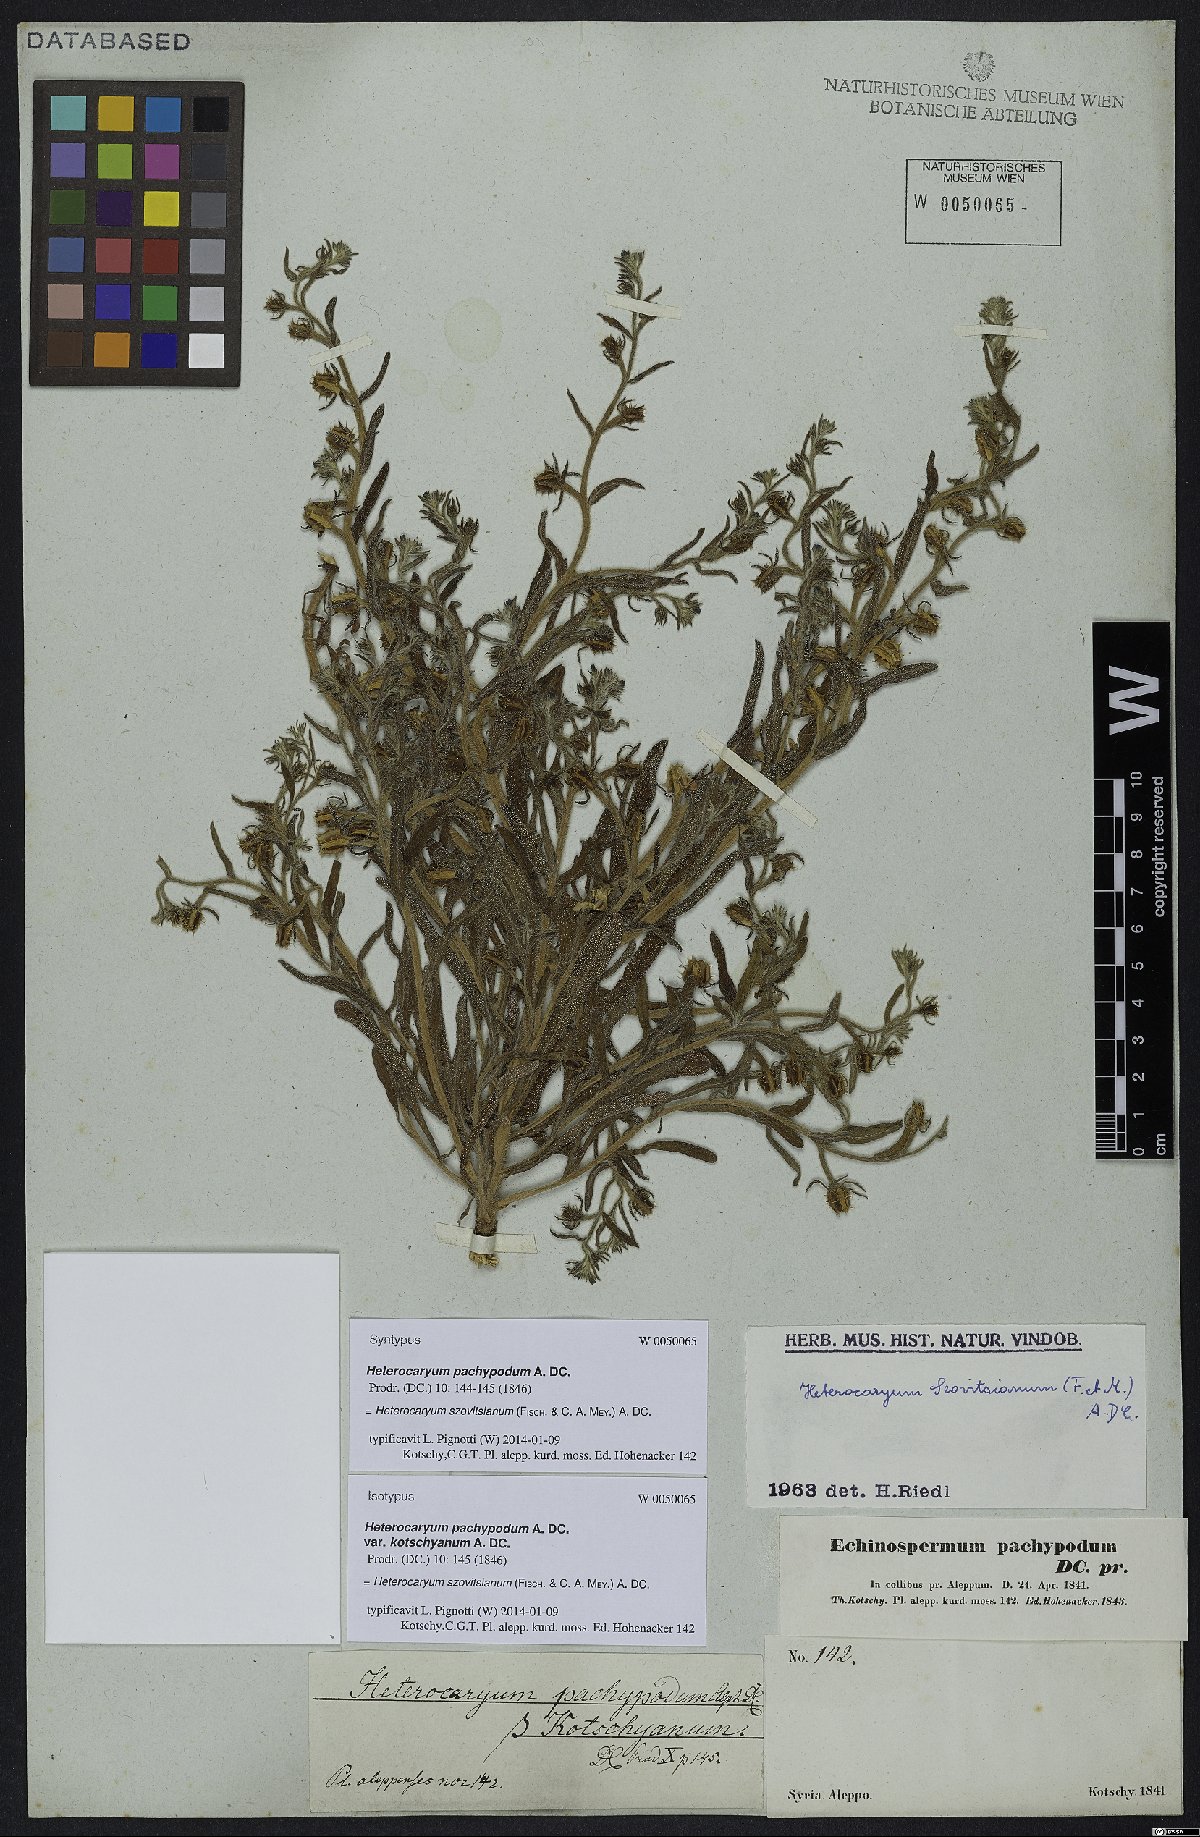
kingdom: Plantae
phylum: Tracheophyta
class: Magnoliopsida
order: Boraginales
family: Boraginaceae
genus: Pseudoheterocaryum
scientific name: Pseudoheterocaryum szovitsianum
